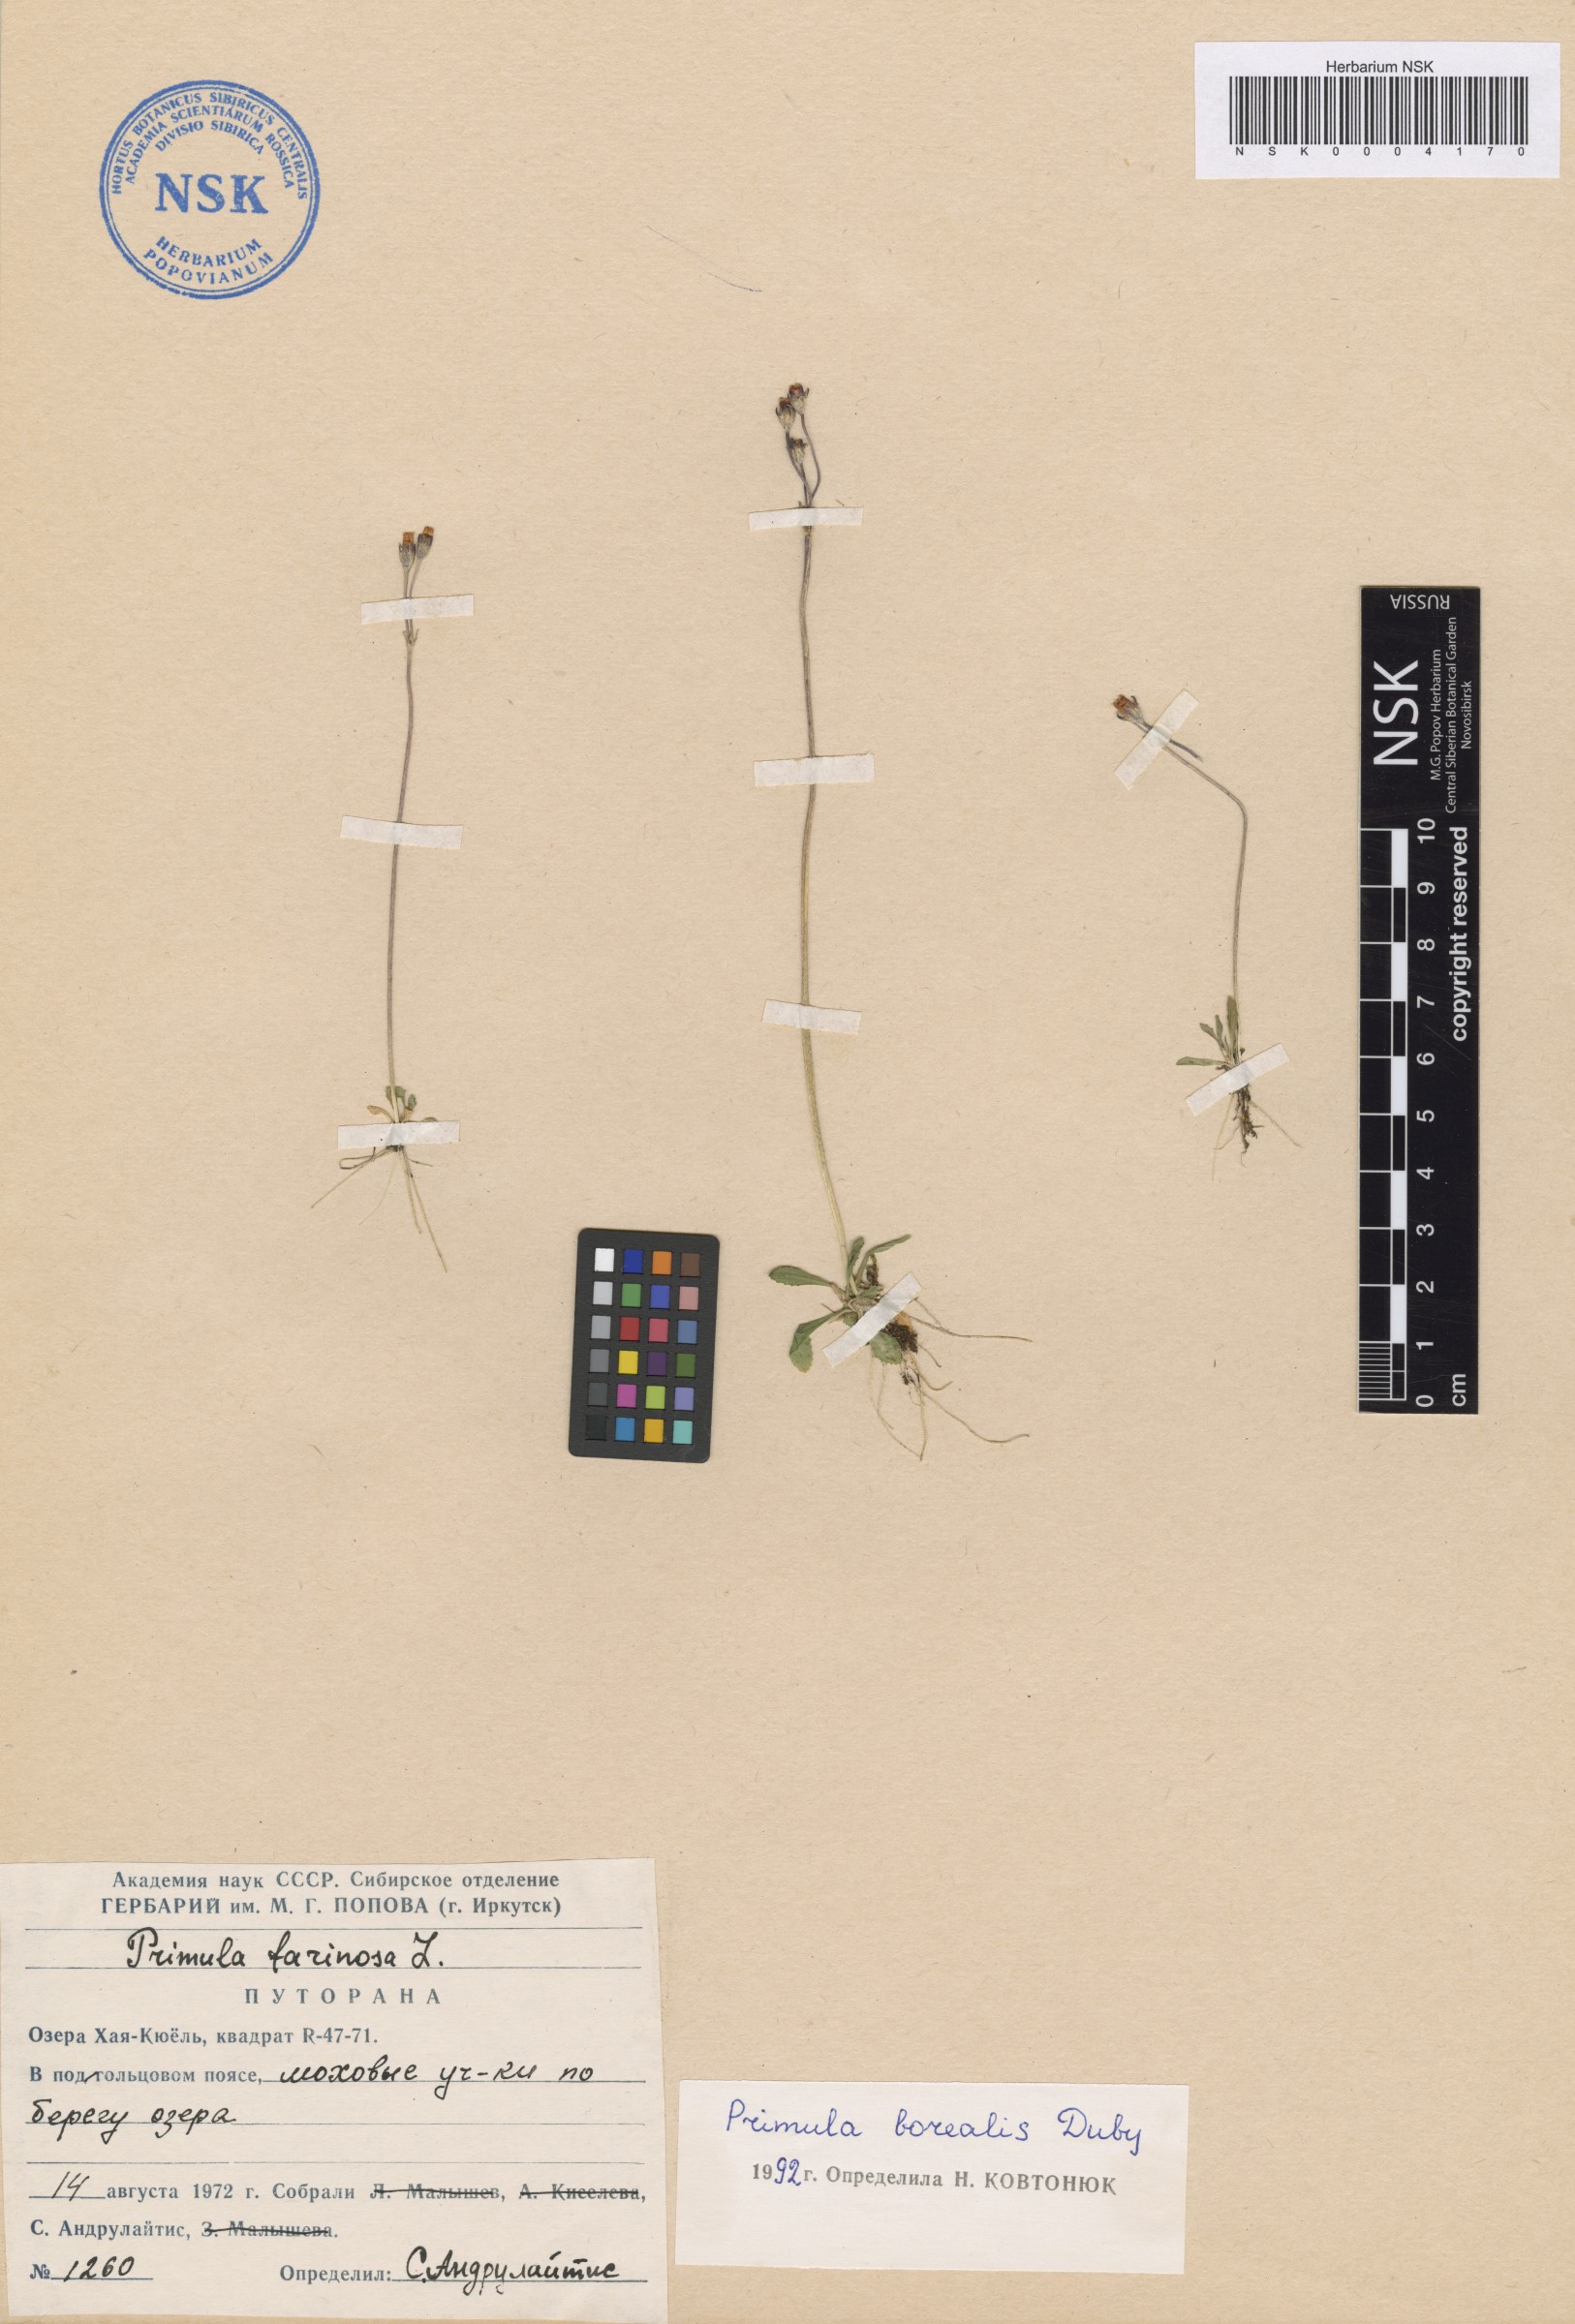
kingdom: Plantae
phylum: Tracheophyta
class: Magnoliopsida
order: Ericales
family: Primulaceae
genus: Primula
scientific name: Primula borealis
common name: Northern primrose
